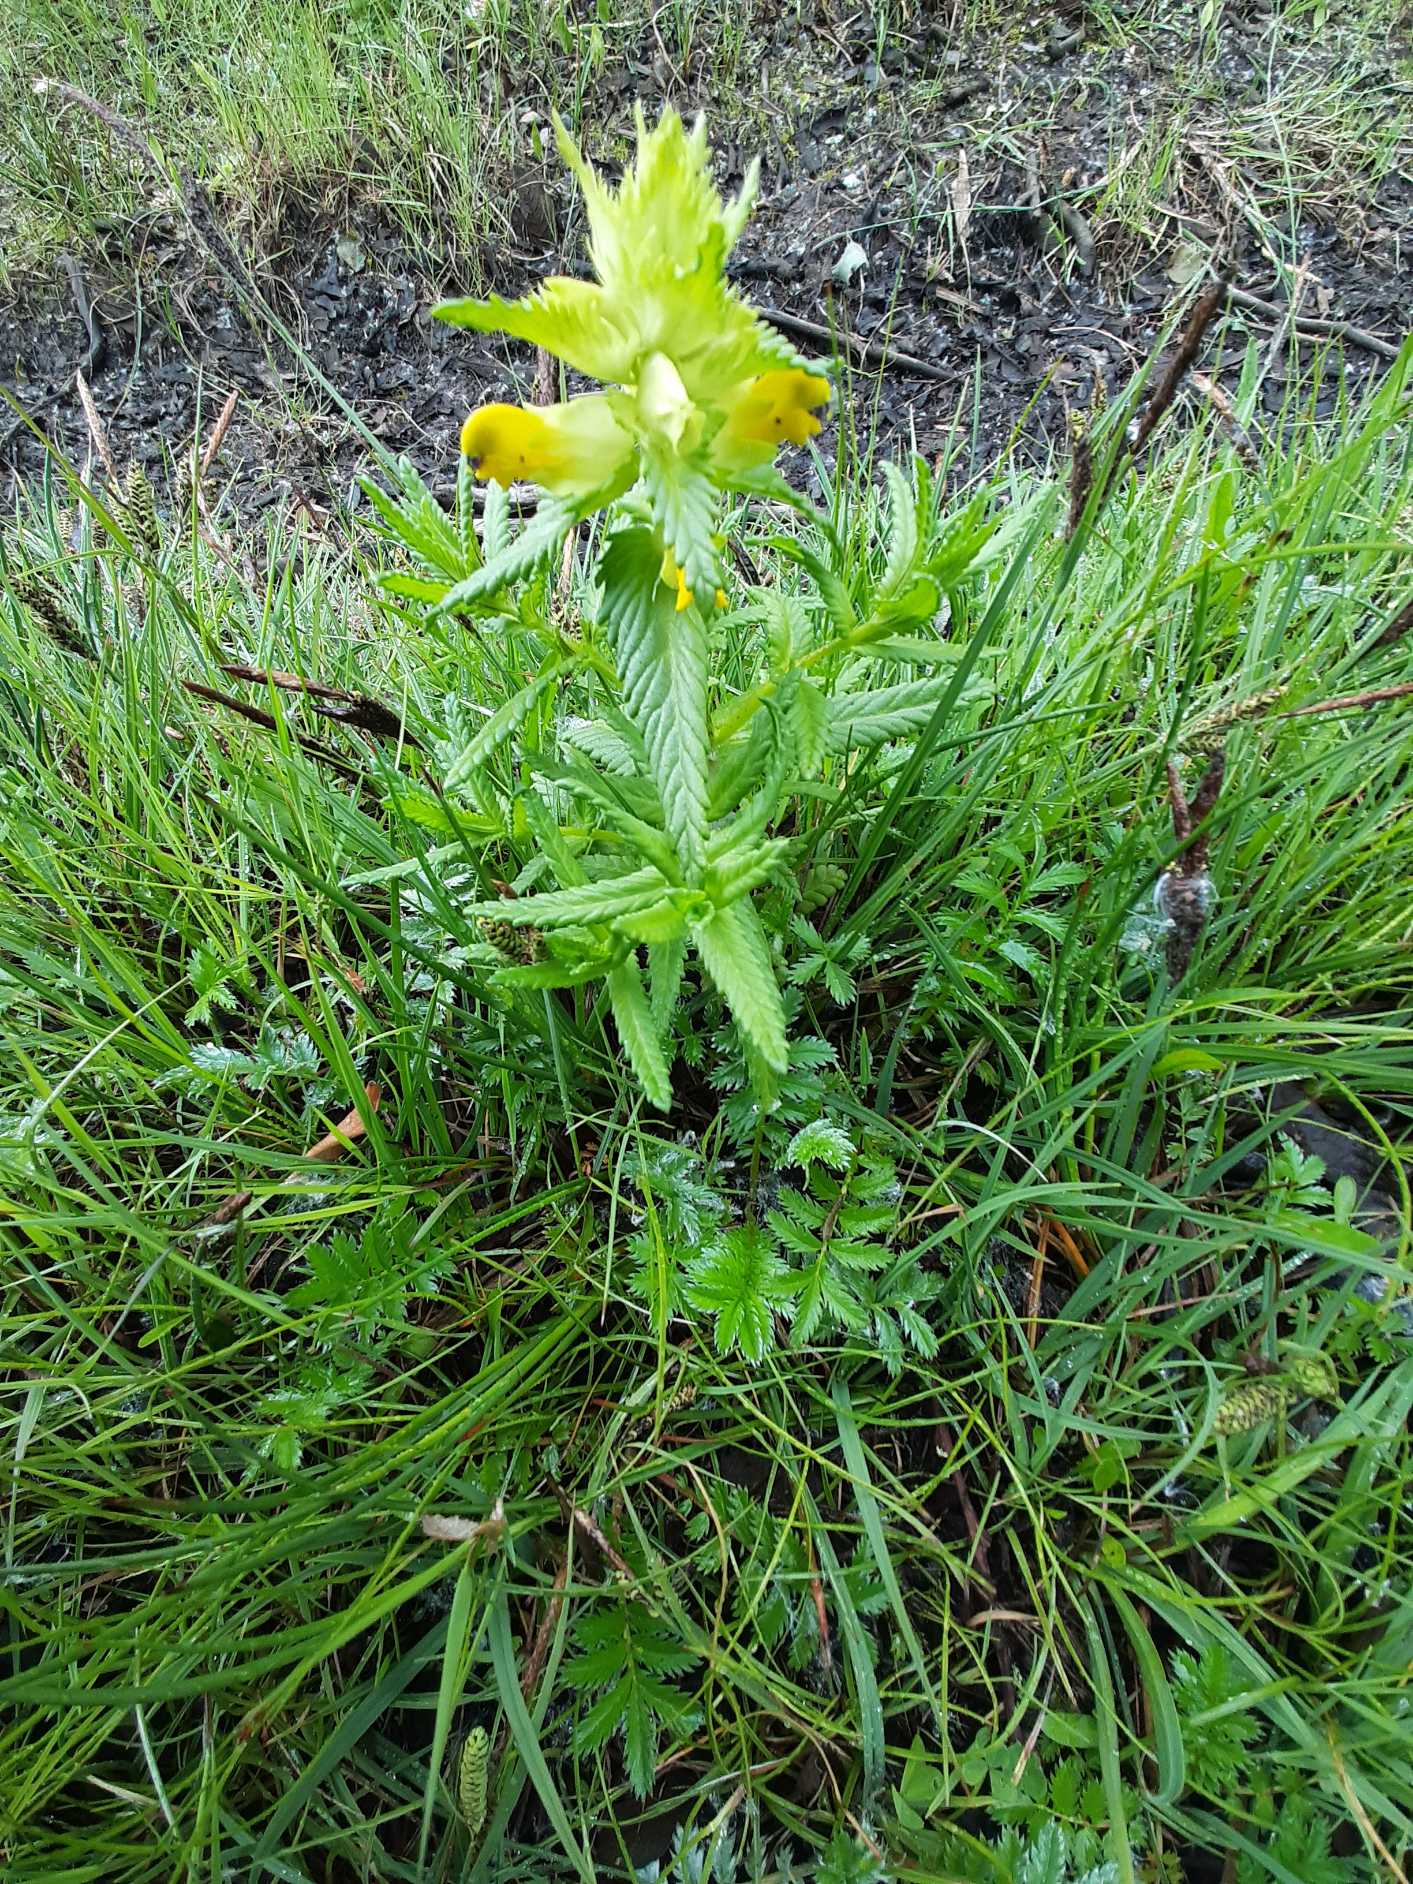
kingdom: Plantae
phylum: Tracheophyta
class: Magnoliopsida
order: Lamiales
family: Orobanchaceae
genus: Rhinanthus
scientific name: Rhinanthus
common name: Stor skjaller
